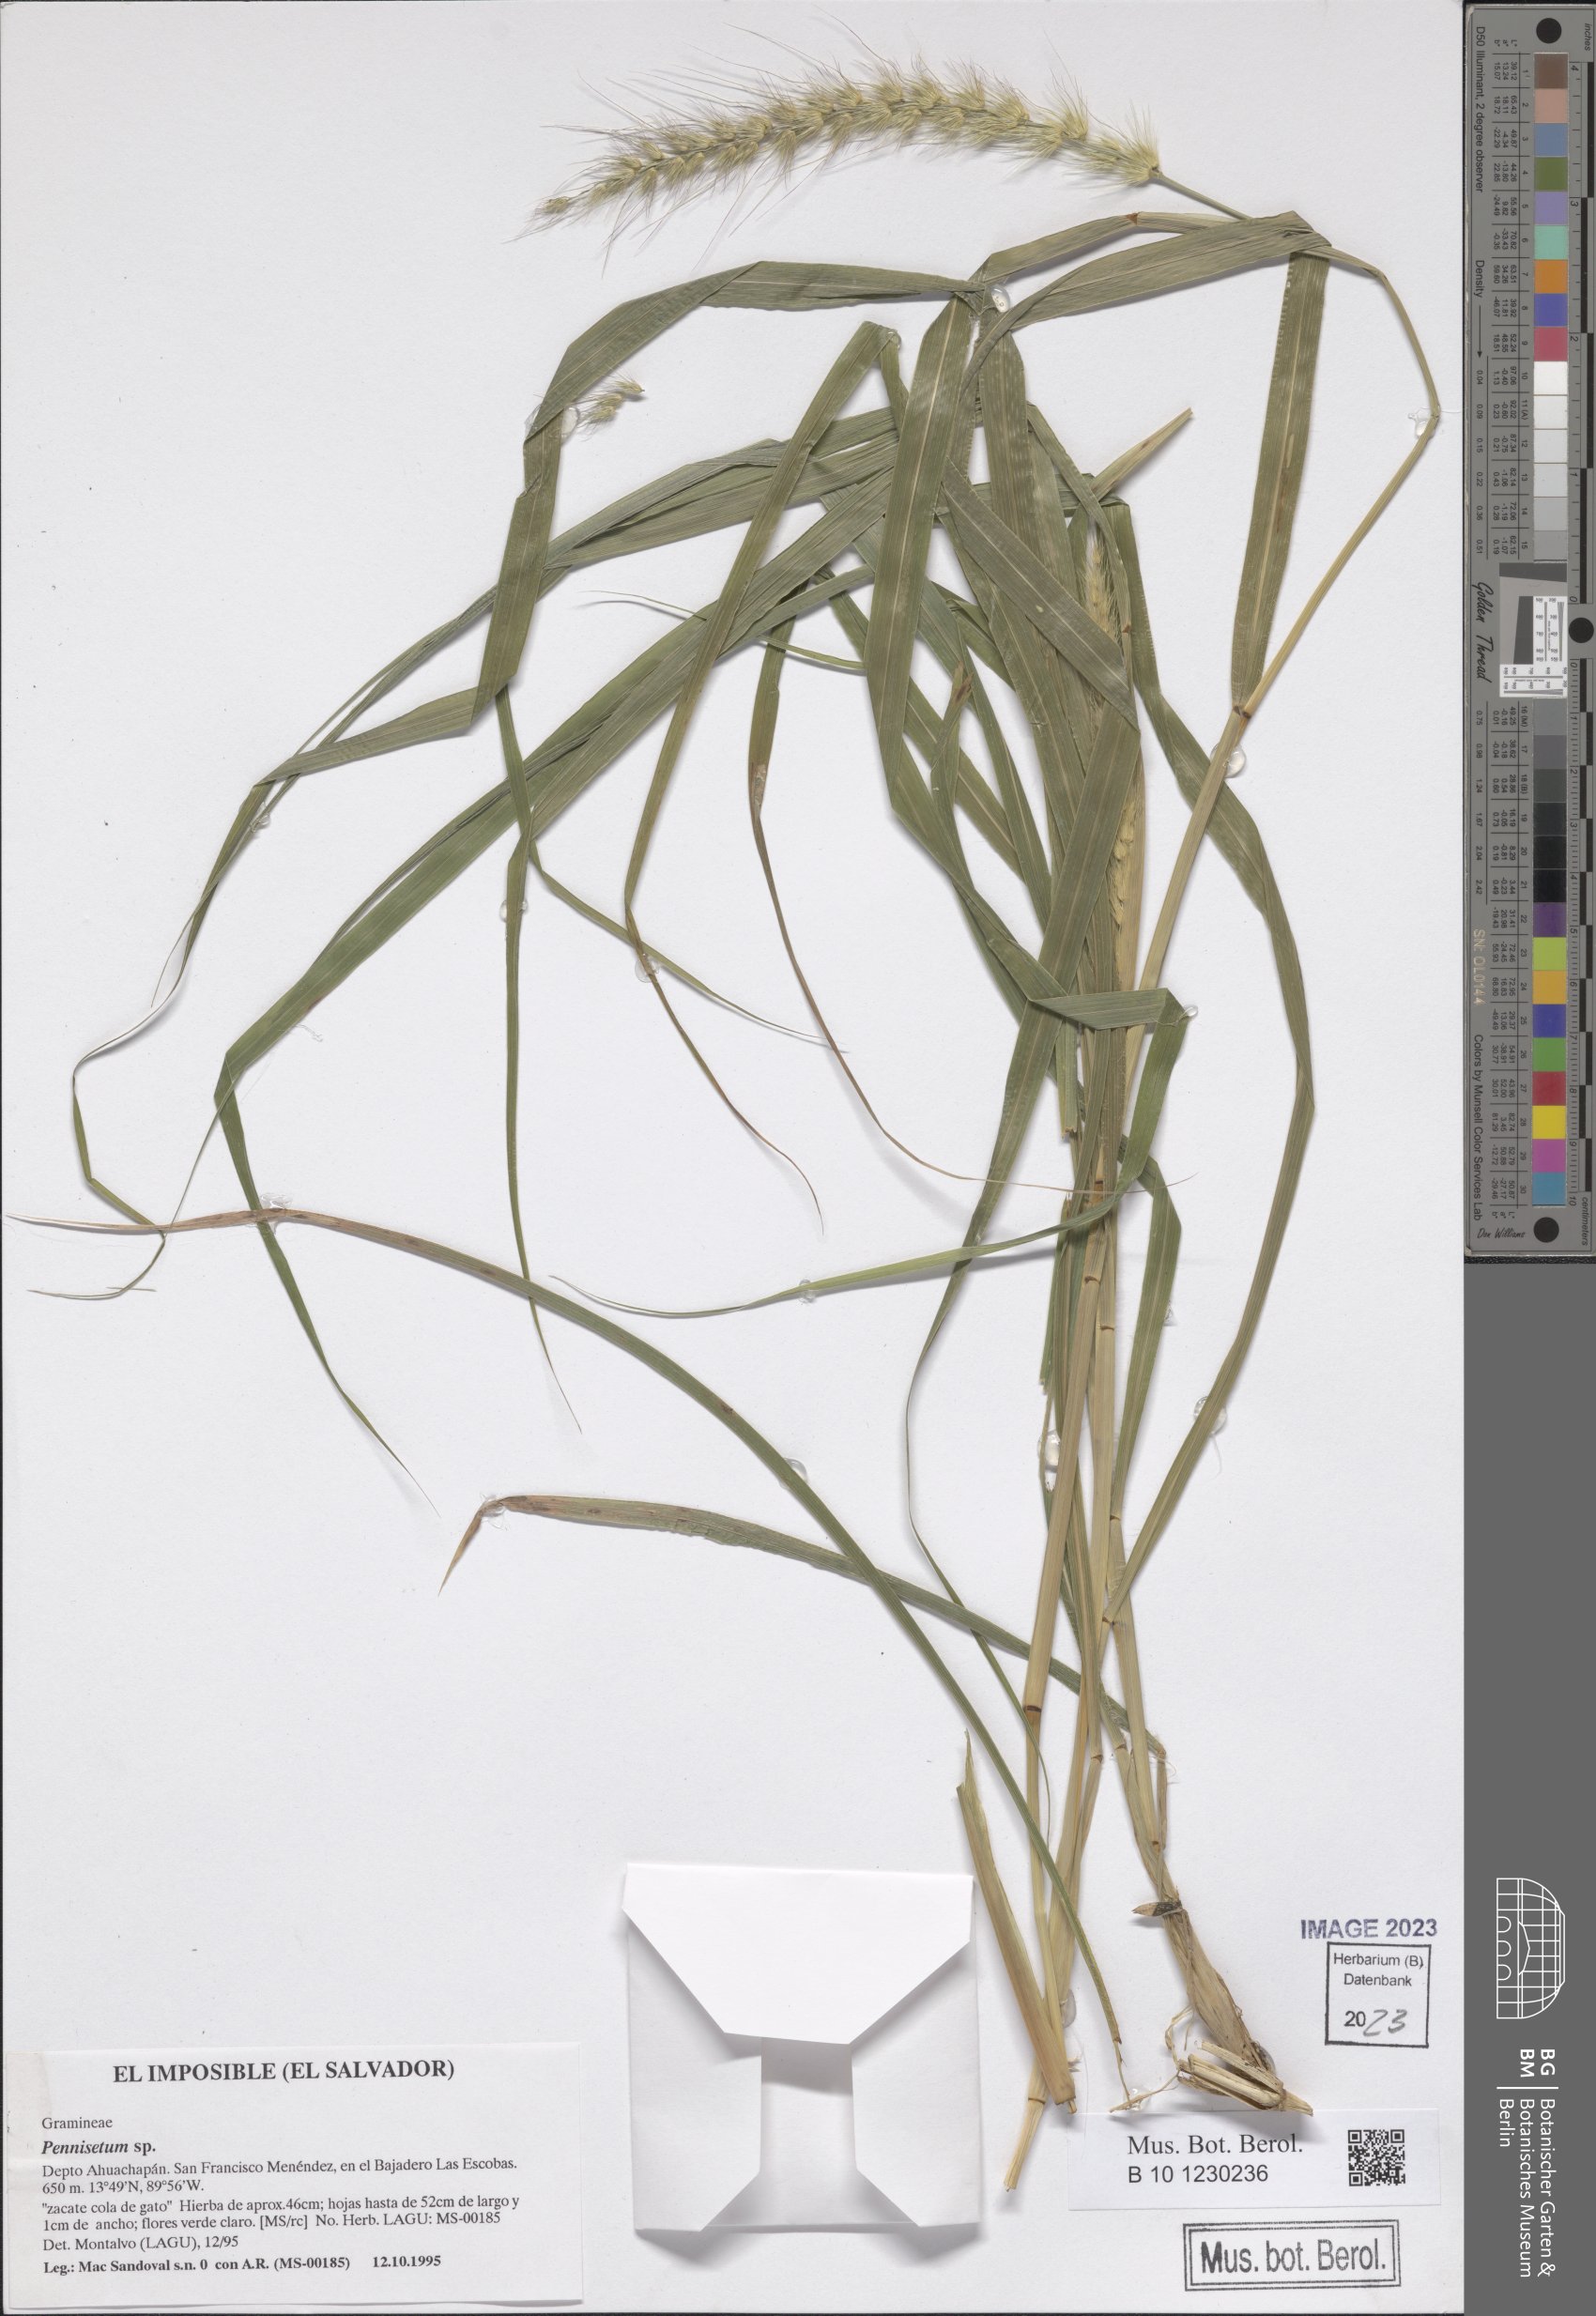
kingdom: Plantae
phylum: Tracheophyta
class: Liliopsida
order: Poales
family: Poaceae
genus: Cenchrus
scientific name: Cenchrus Pennisetum spec
